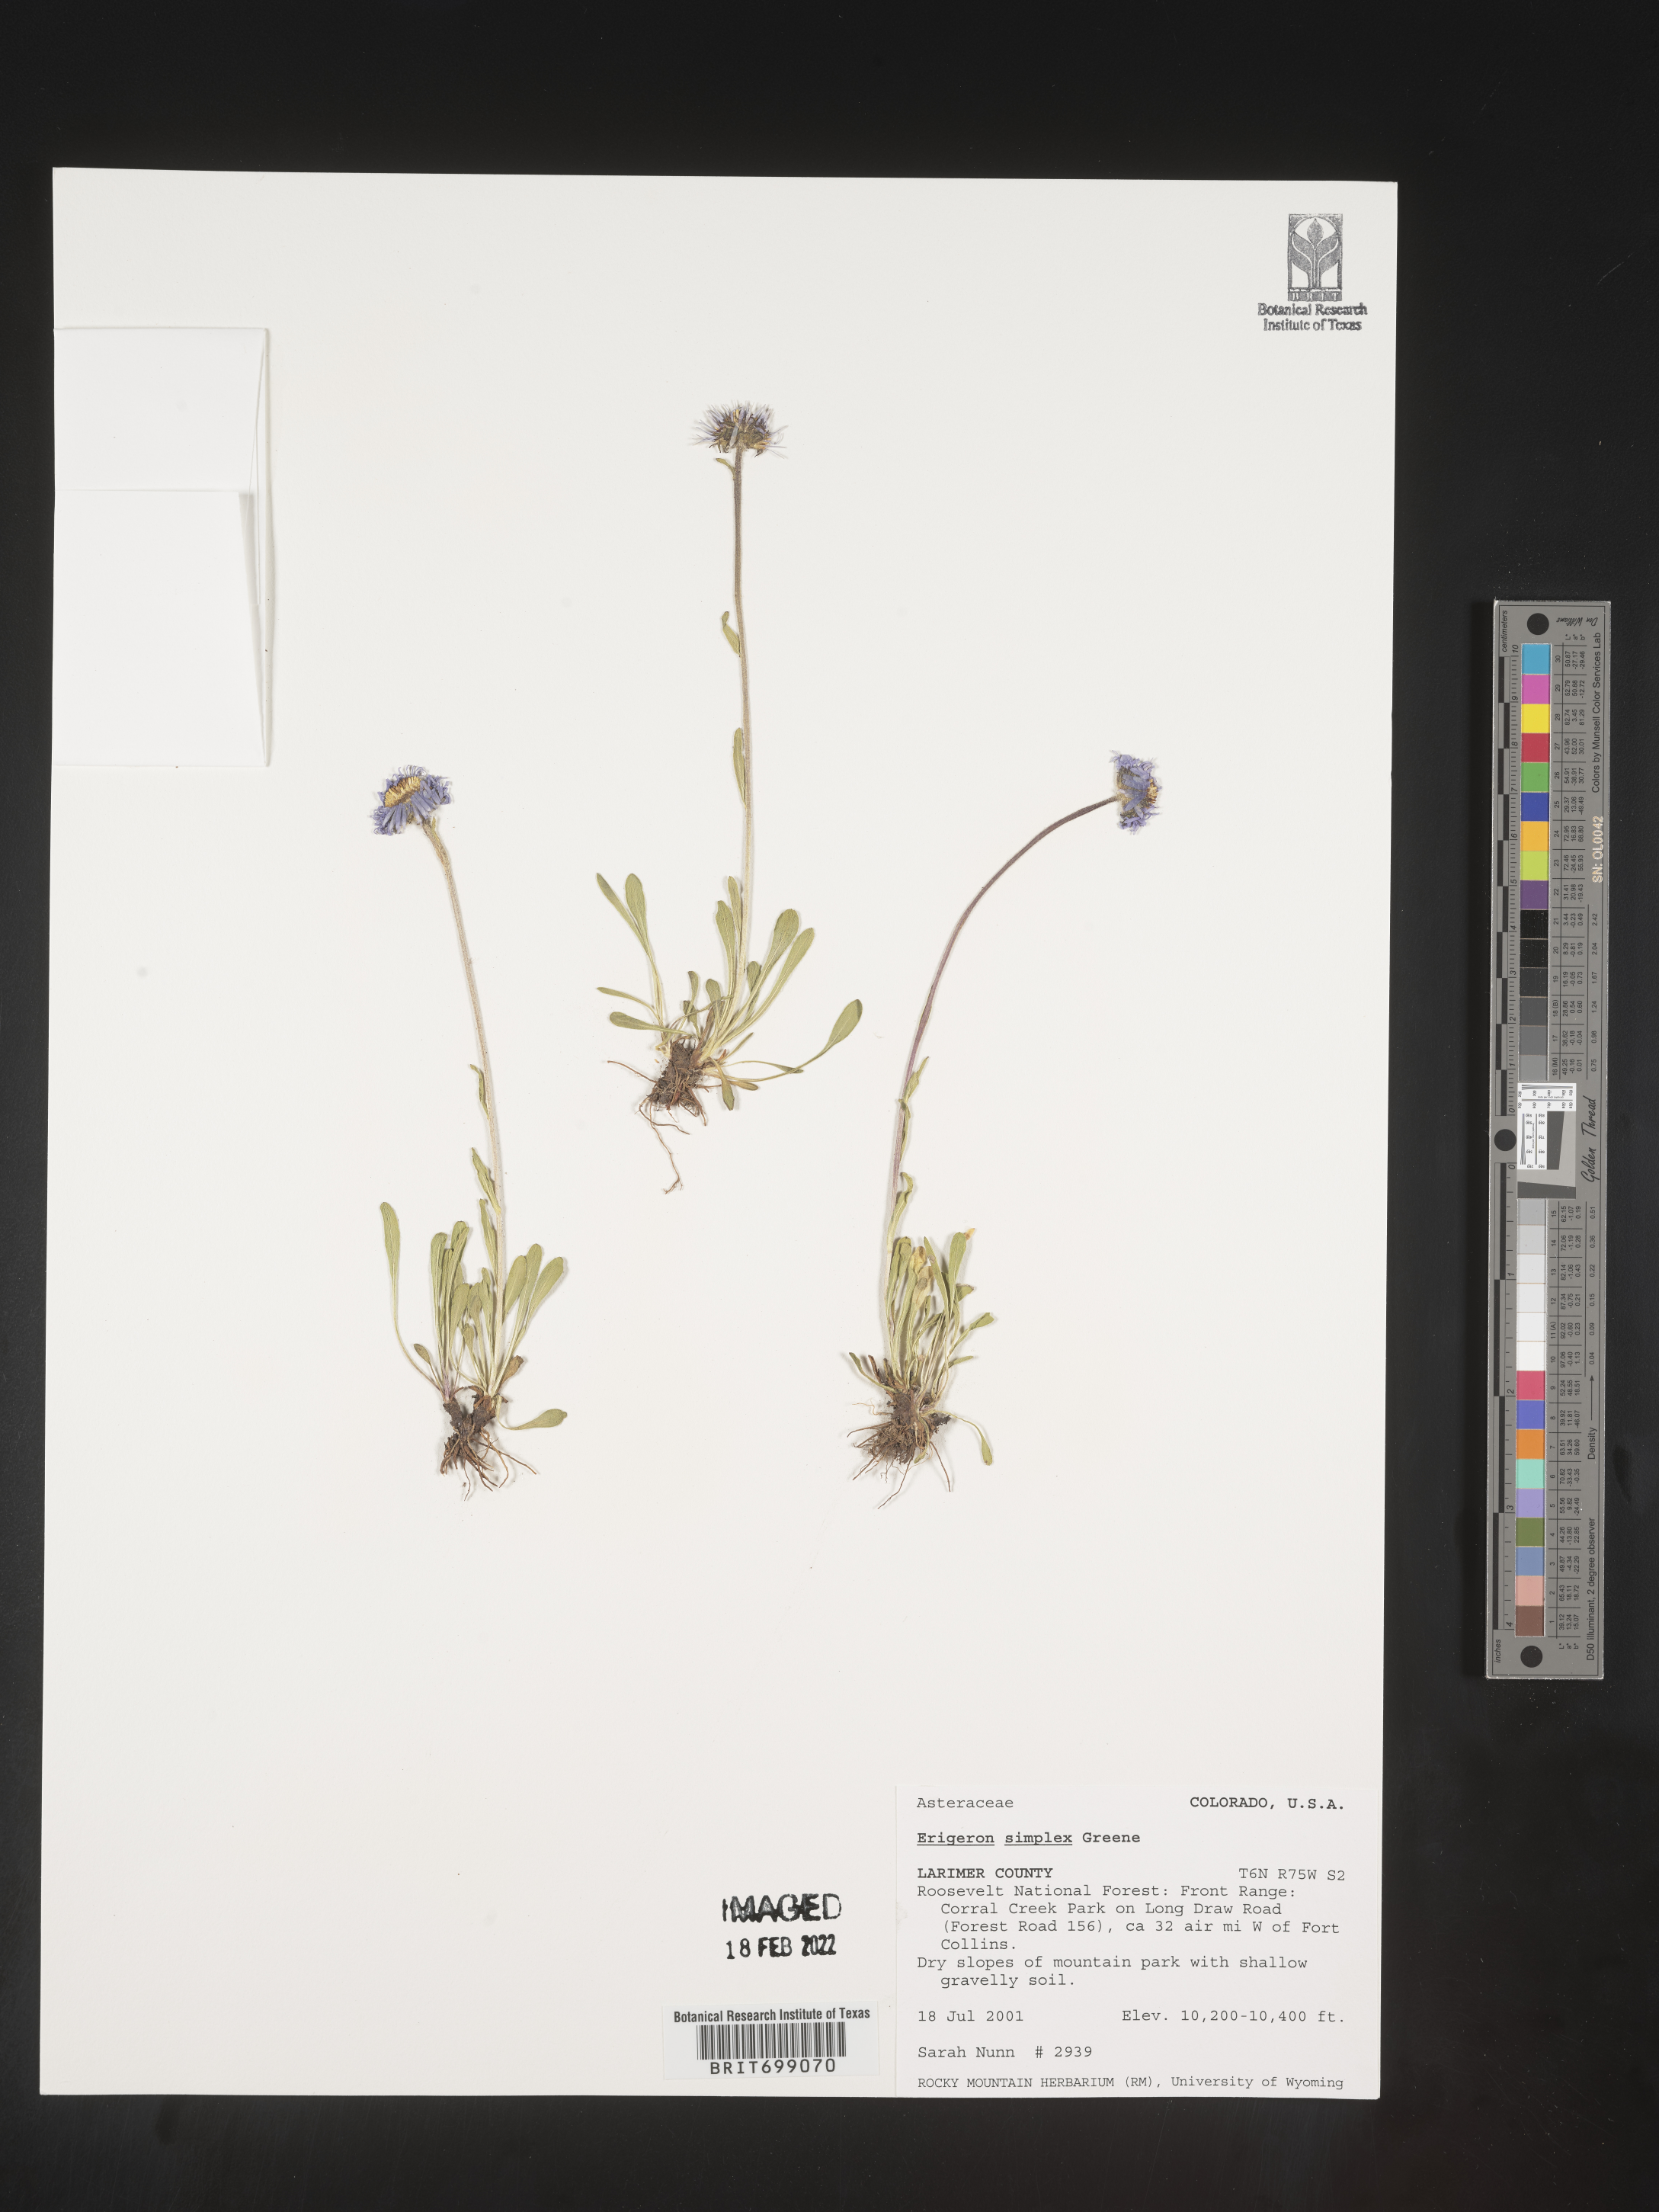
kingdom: Plantae
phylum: Tracheophyta
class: Magnoliopsida
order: Asterales
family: Asteraceae
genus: Erigeron
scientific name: Erigeron caucasicus
